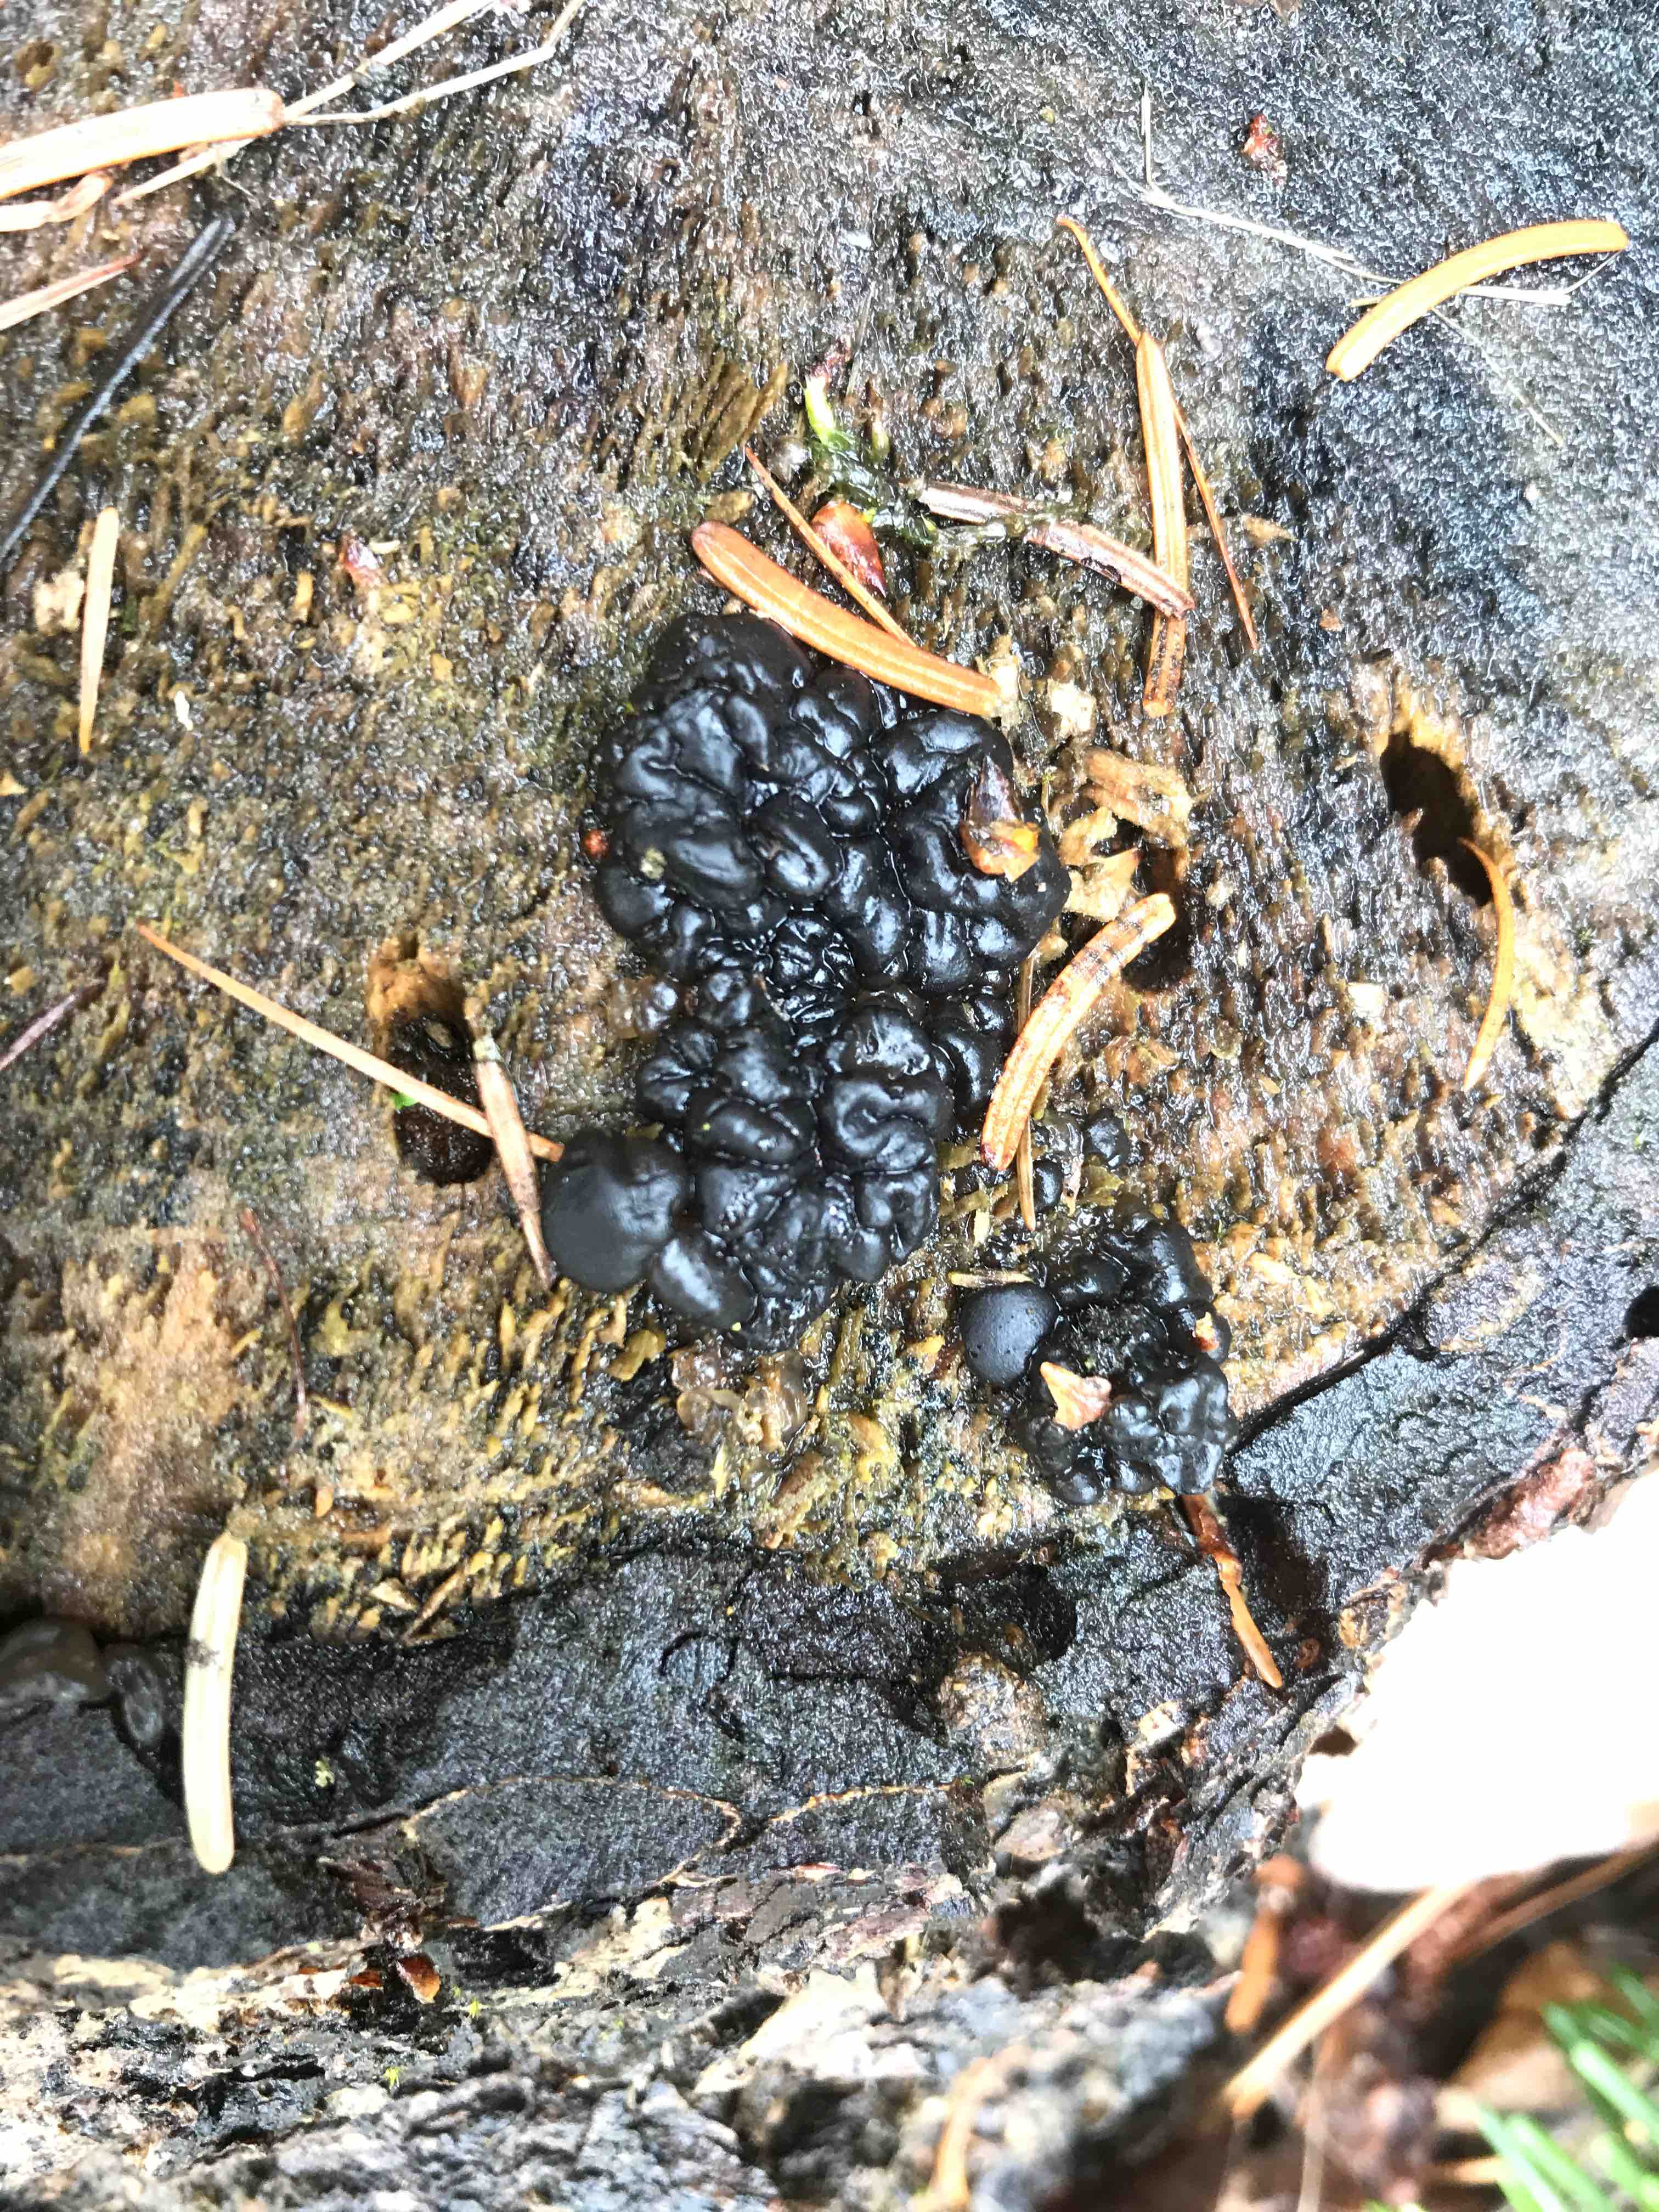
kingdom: Fungi
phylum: Basidiomycota
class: Agaricomycetes
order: Auriculariales
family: Auriculariaceae
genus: Exidia
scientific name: Exidia pithya
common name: gran-bævretop
